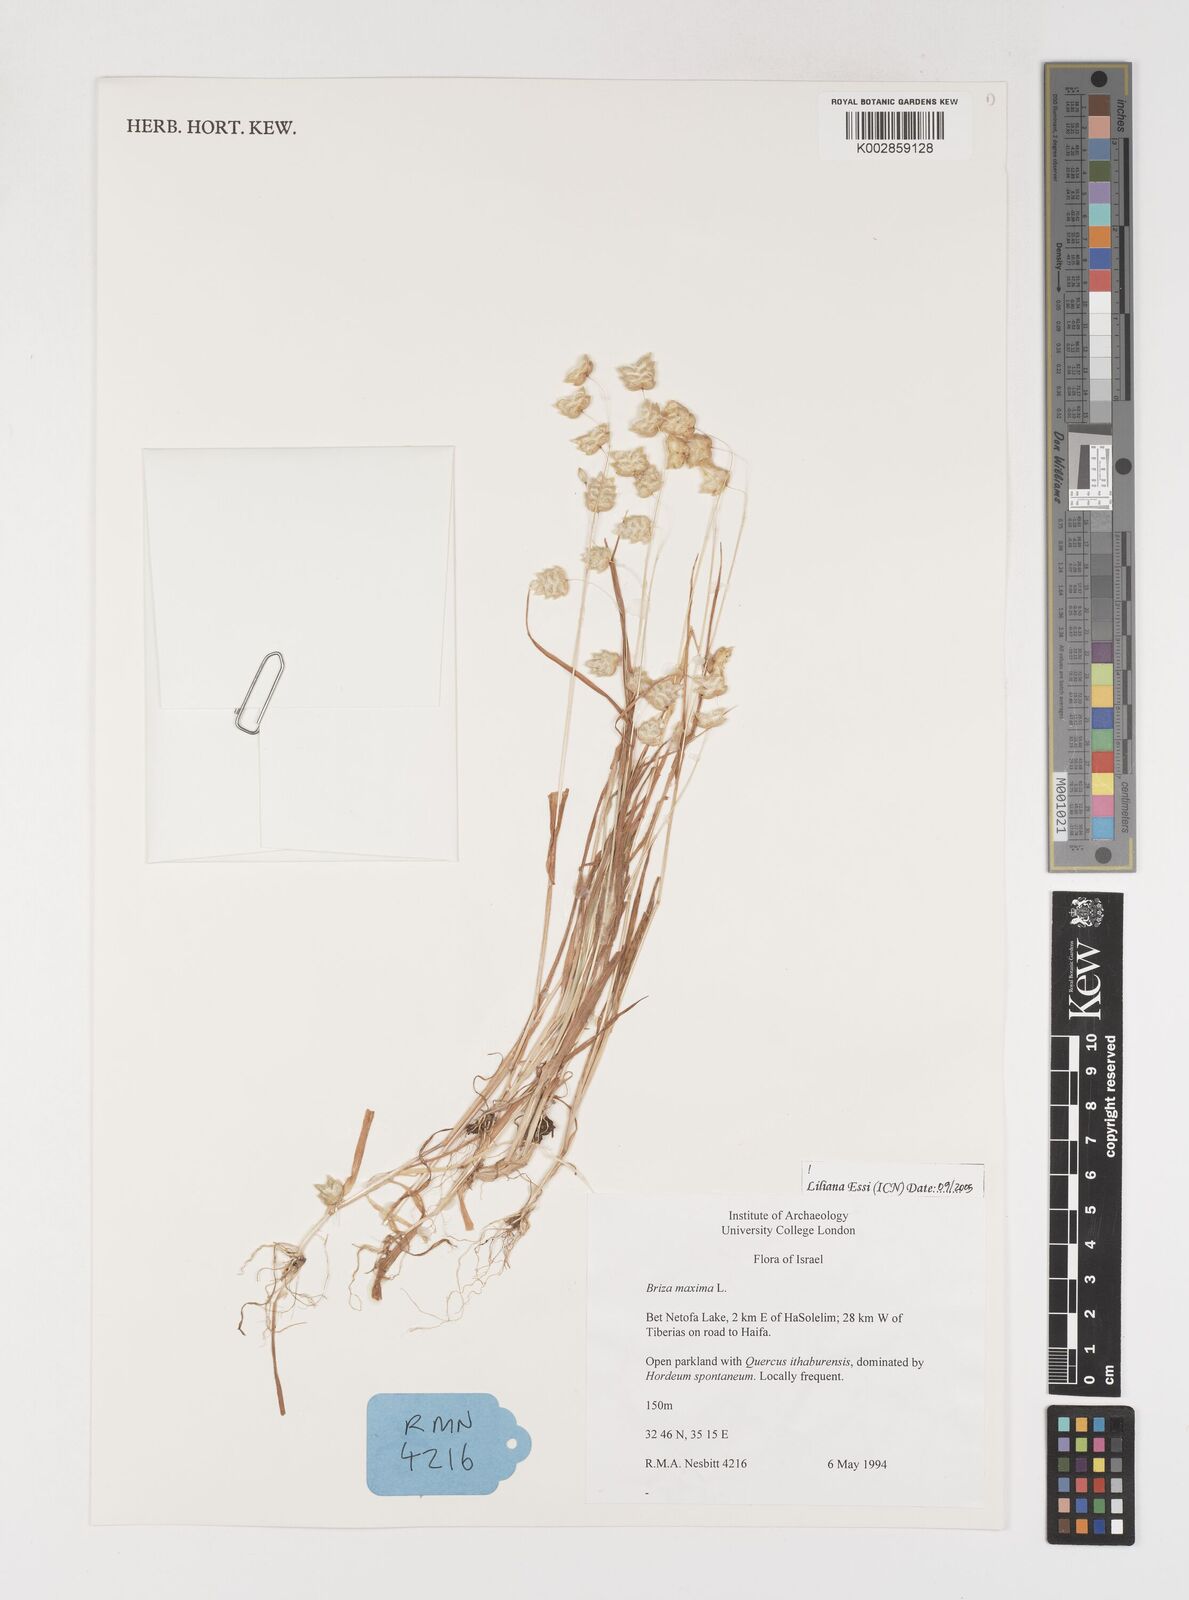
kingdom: Plantae
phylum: Tracheophyta
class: Liliopsida
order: Poales
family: Poaceae
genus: Briza
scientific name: Briza maxima
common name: Big quakinggrass
